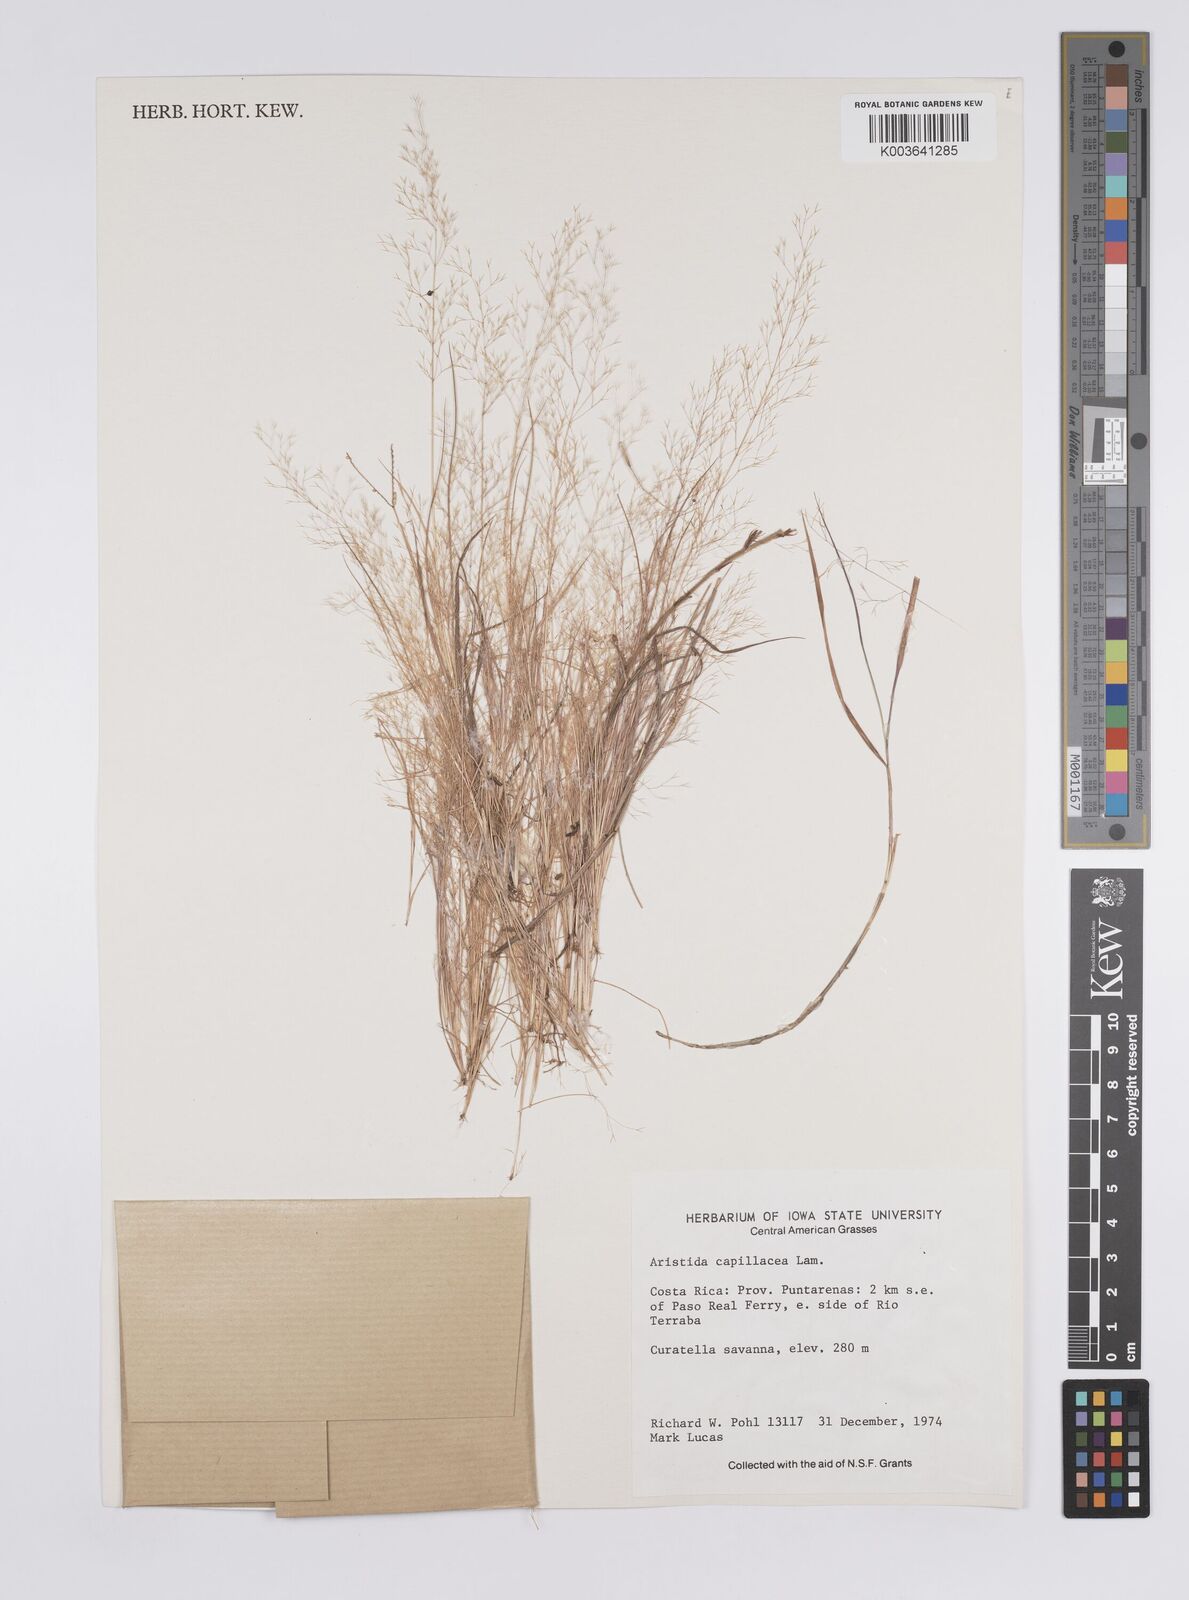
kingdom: Plantae
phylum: Tracheophyta
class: Liliopsida
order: Poales
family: Poaceae
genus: Aristida
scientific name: Aristida
